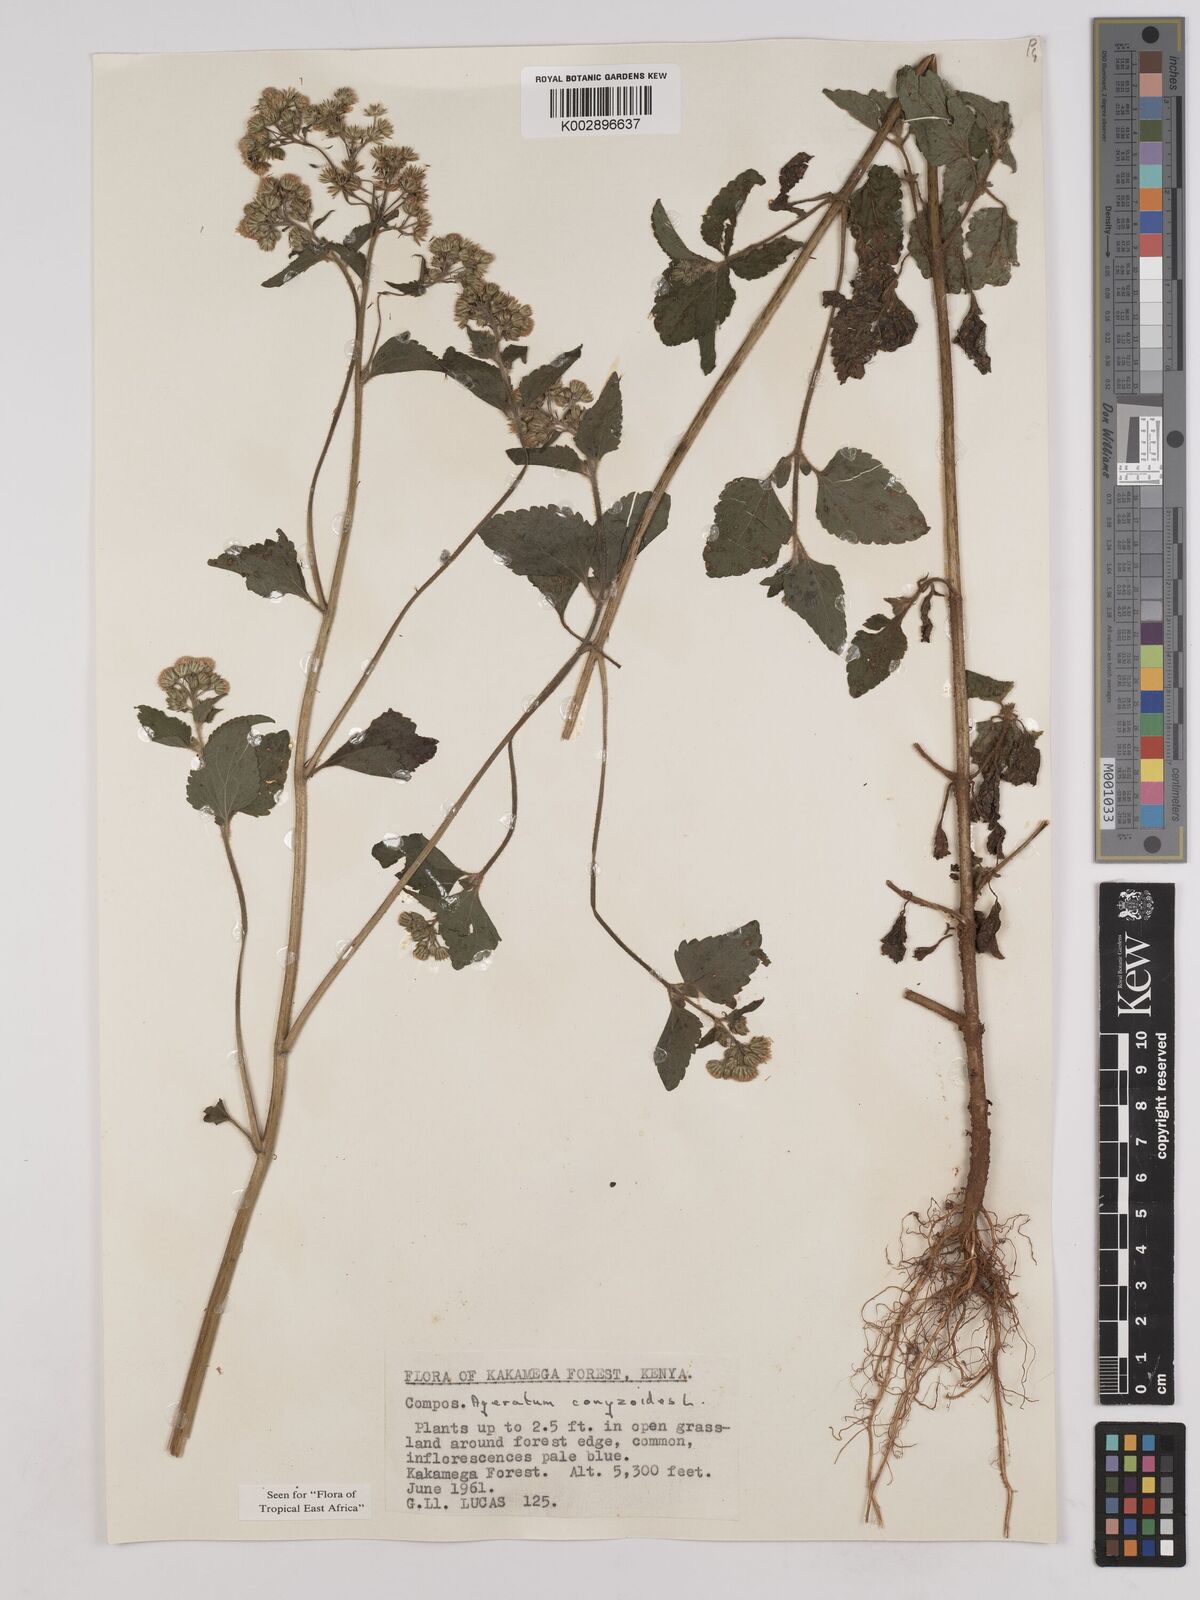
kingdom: Plantae
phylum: Tracheophyta
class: Magnoliopsida
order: Asterales
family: Asteraceae
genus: Ageratum
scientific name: Ageratum conyzoides
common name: Tropical whiteweed
